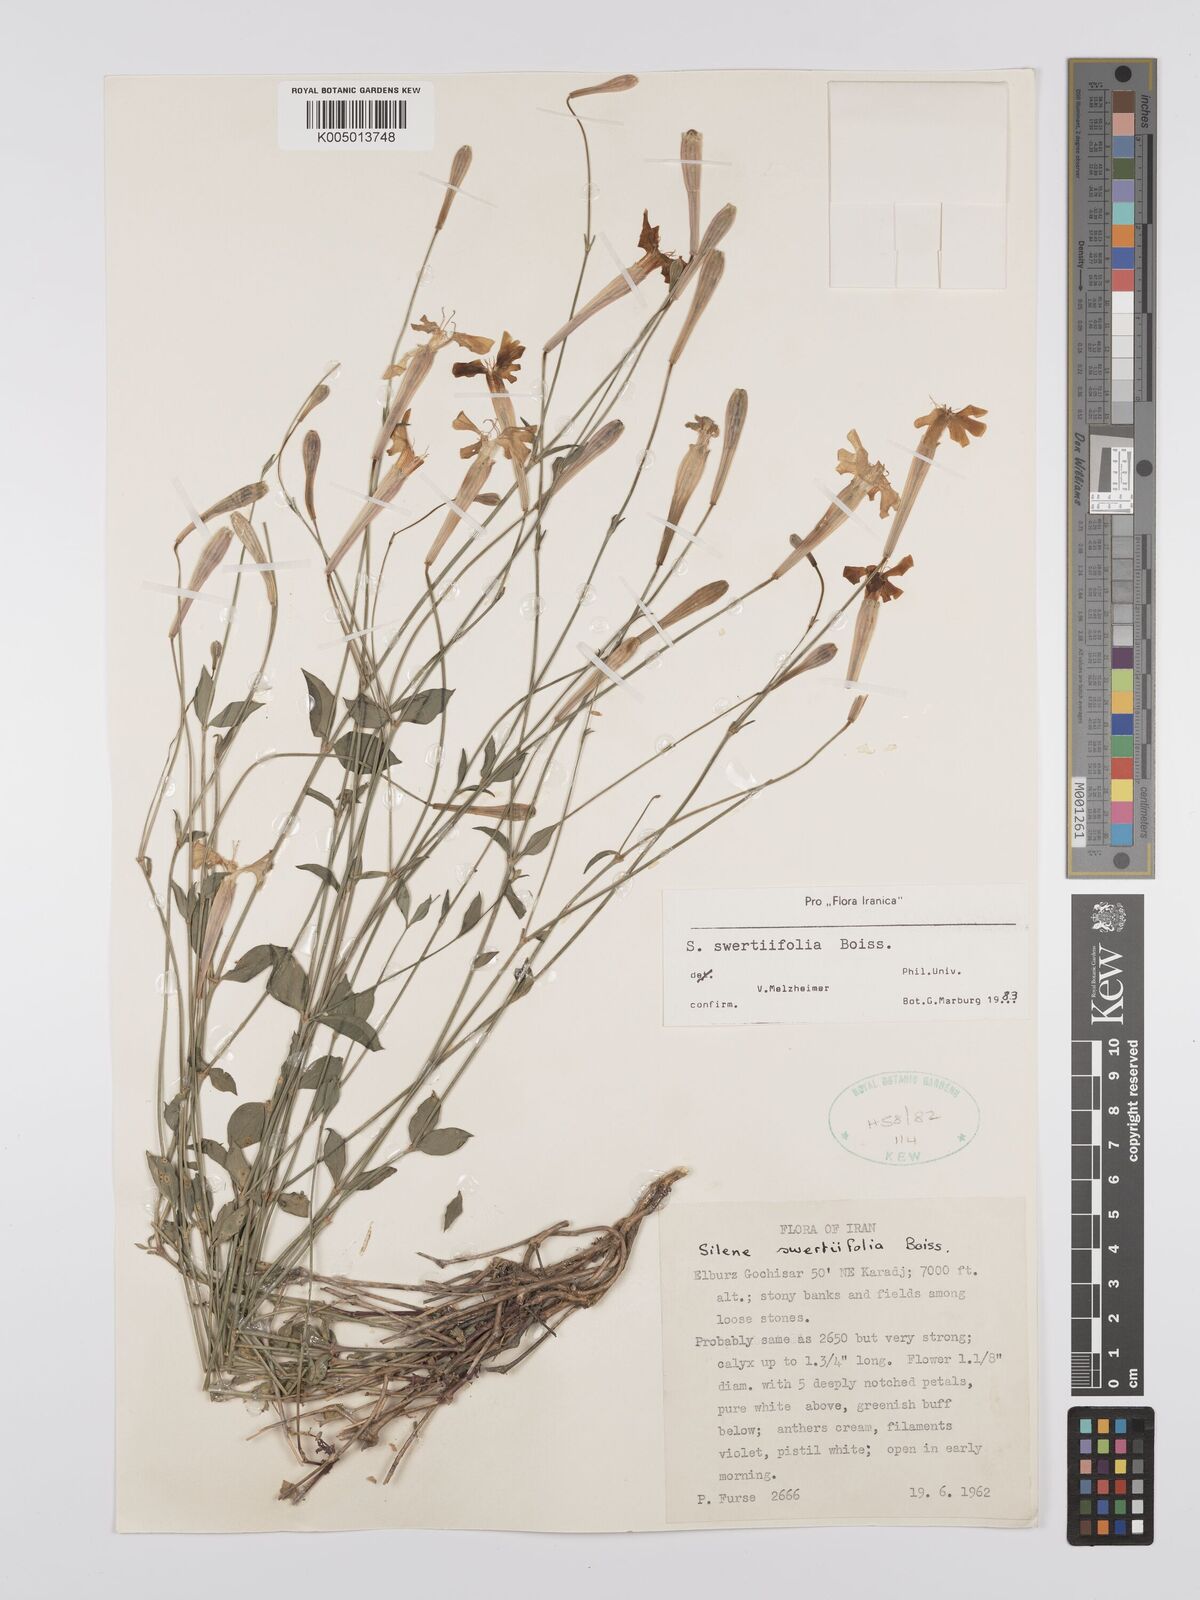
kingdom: Plantae
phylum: Tracheophyta
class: Magnoliopsida
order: Caryophyllales
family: Caryophyllaceae
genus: Silene
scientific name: Silene swertiifolia
